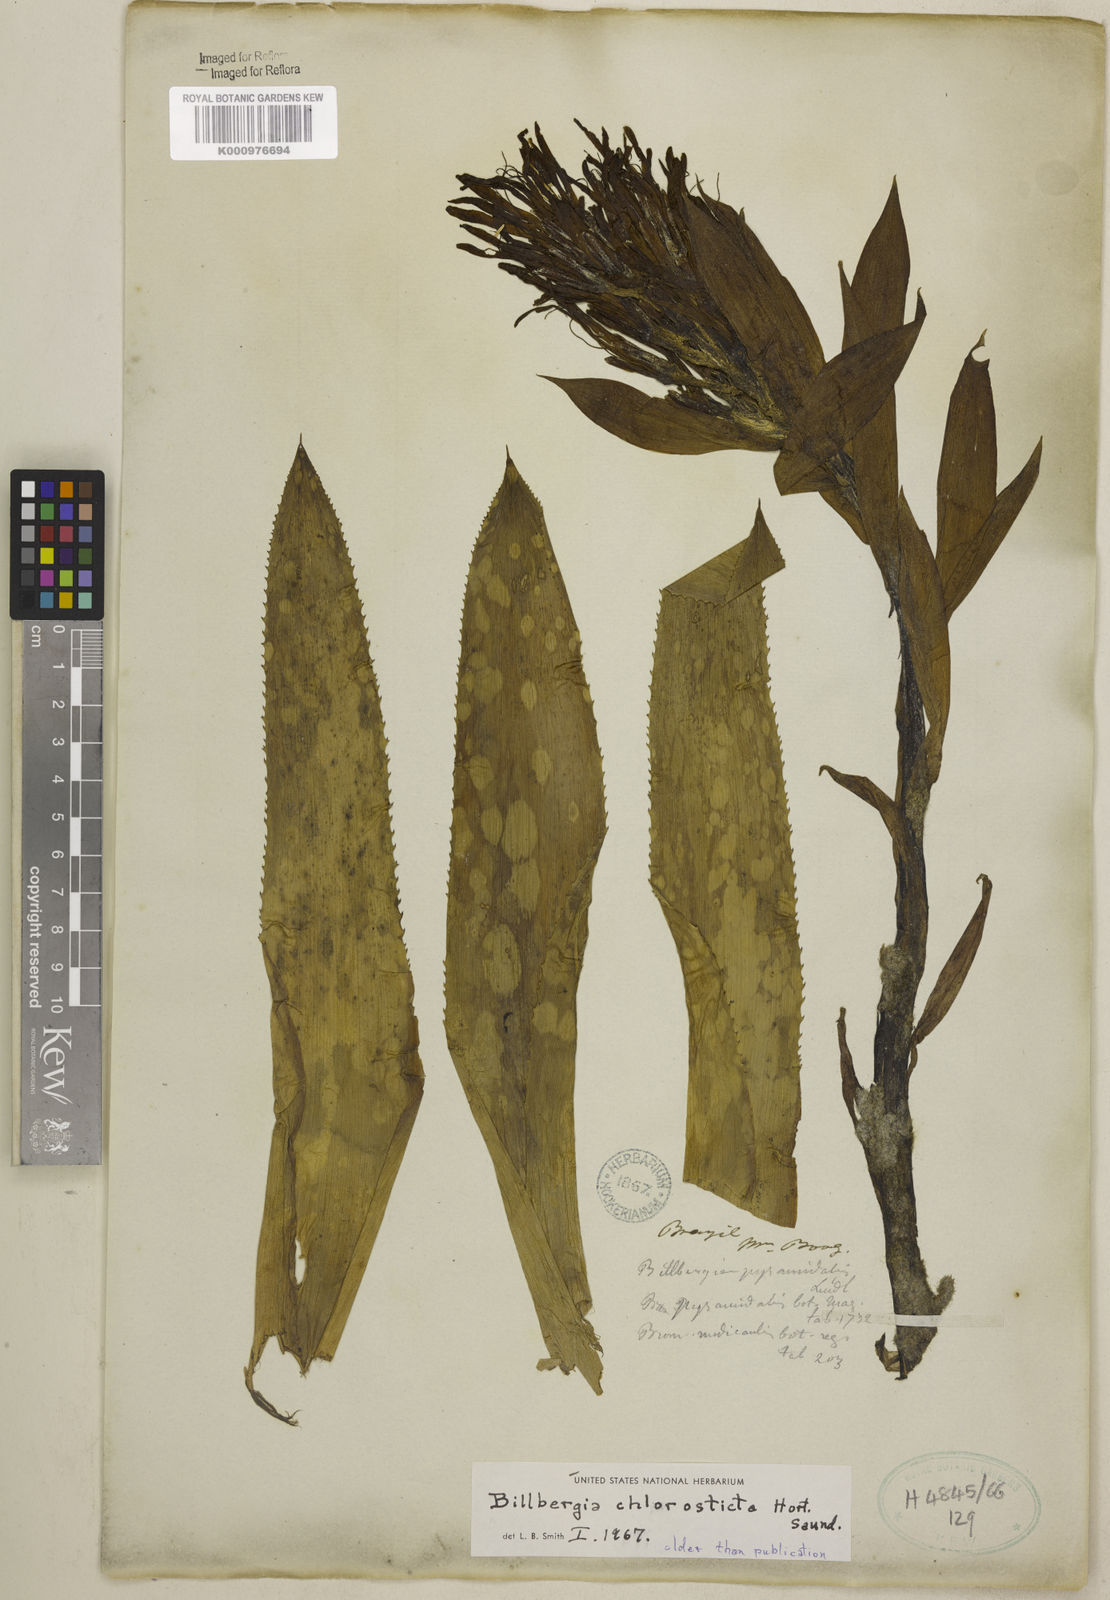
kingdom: Plantae
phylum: Tracheophyta
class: Liliopsida
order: Poales
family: Bromeliaceae
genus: Billbergia
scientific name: Billbergia
